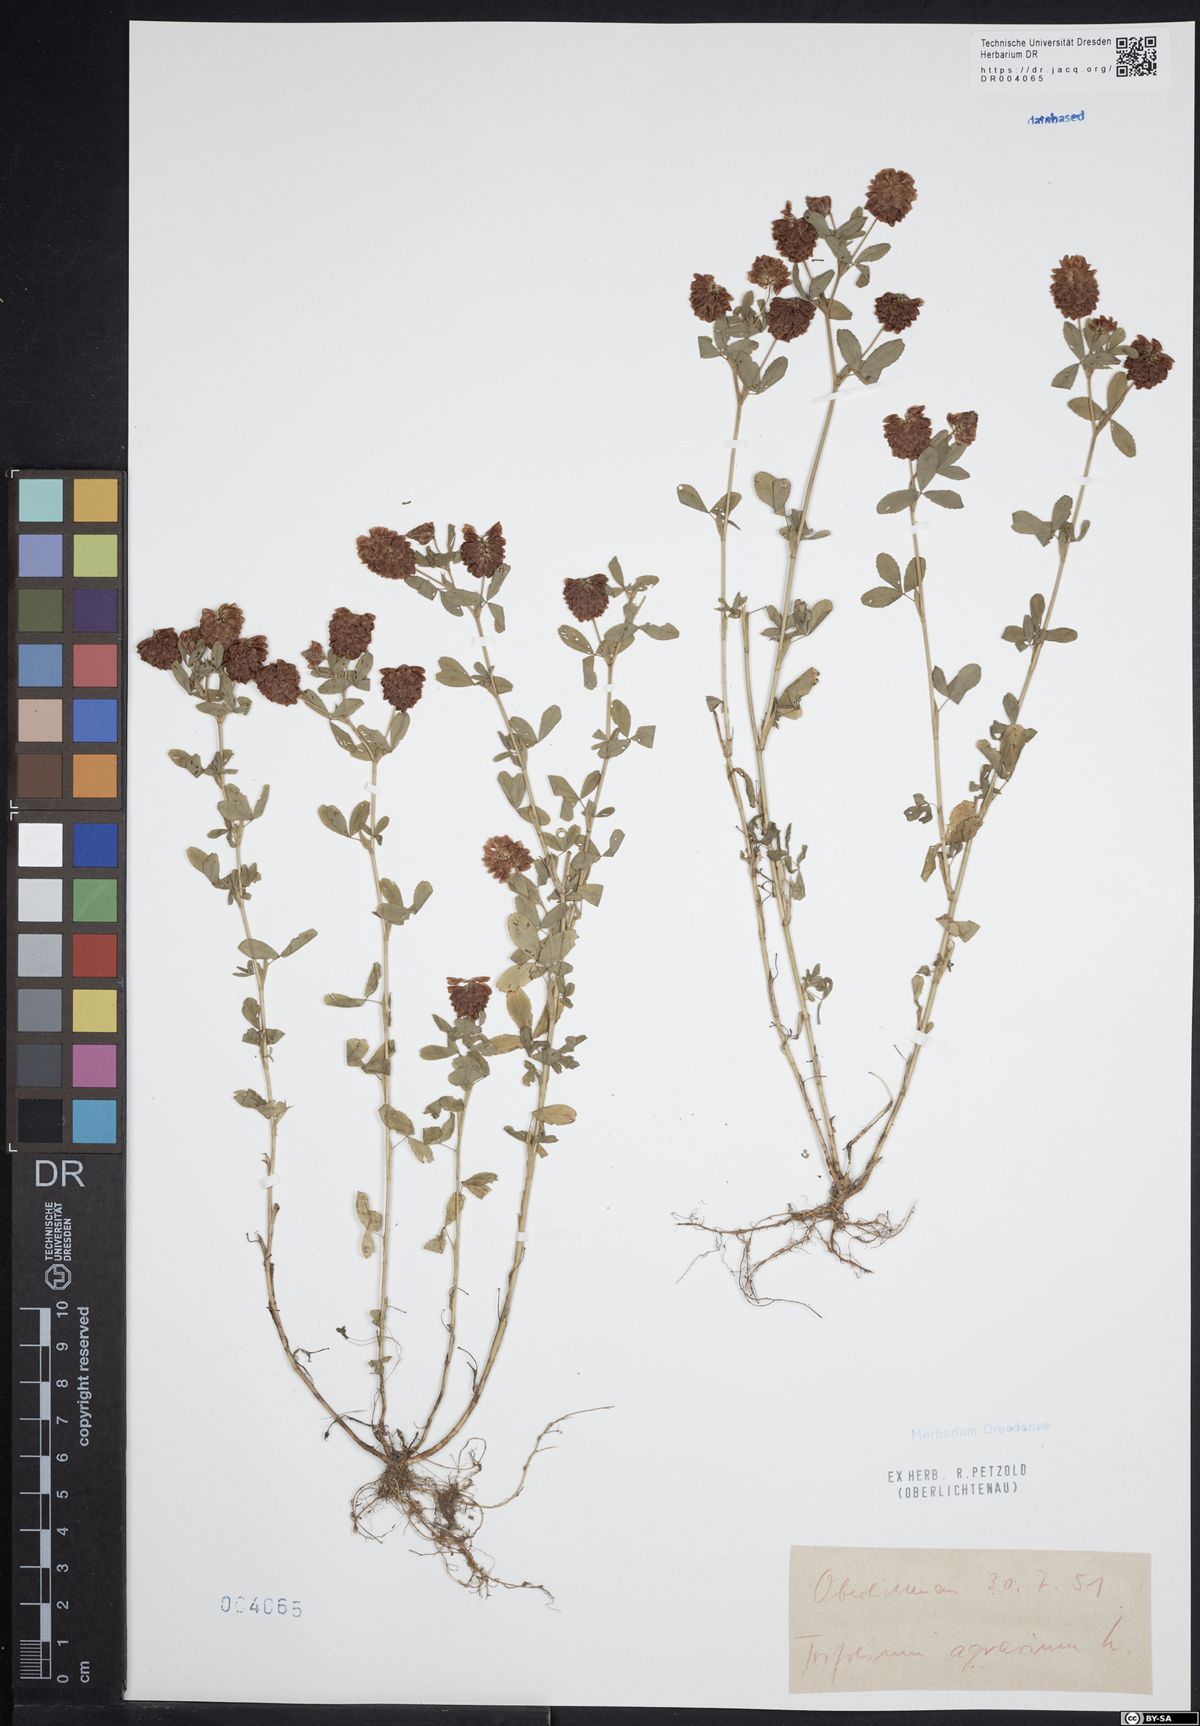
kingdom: Plantae
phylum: Tracheophyta
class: Magnoliopsida
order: Fabales
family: Fabaceae
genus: Trifolium
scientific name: Trifolium aureum
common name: Golden clover
